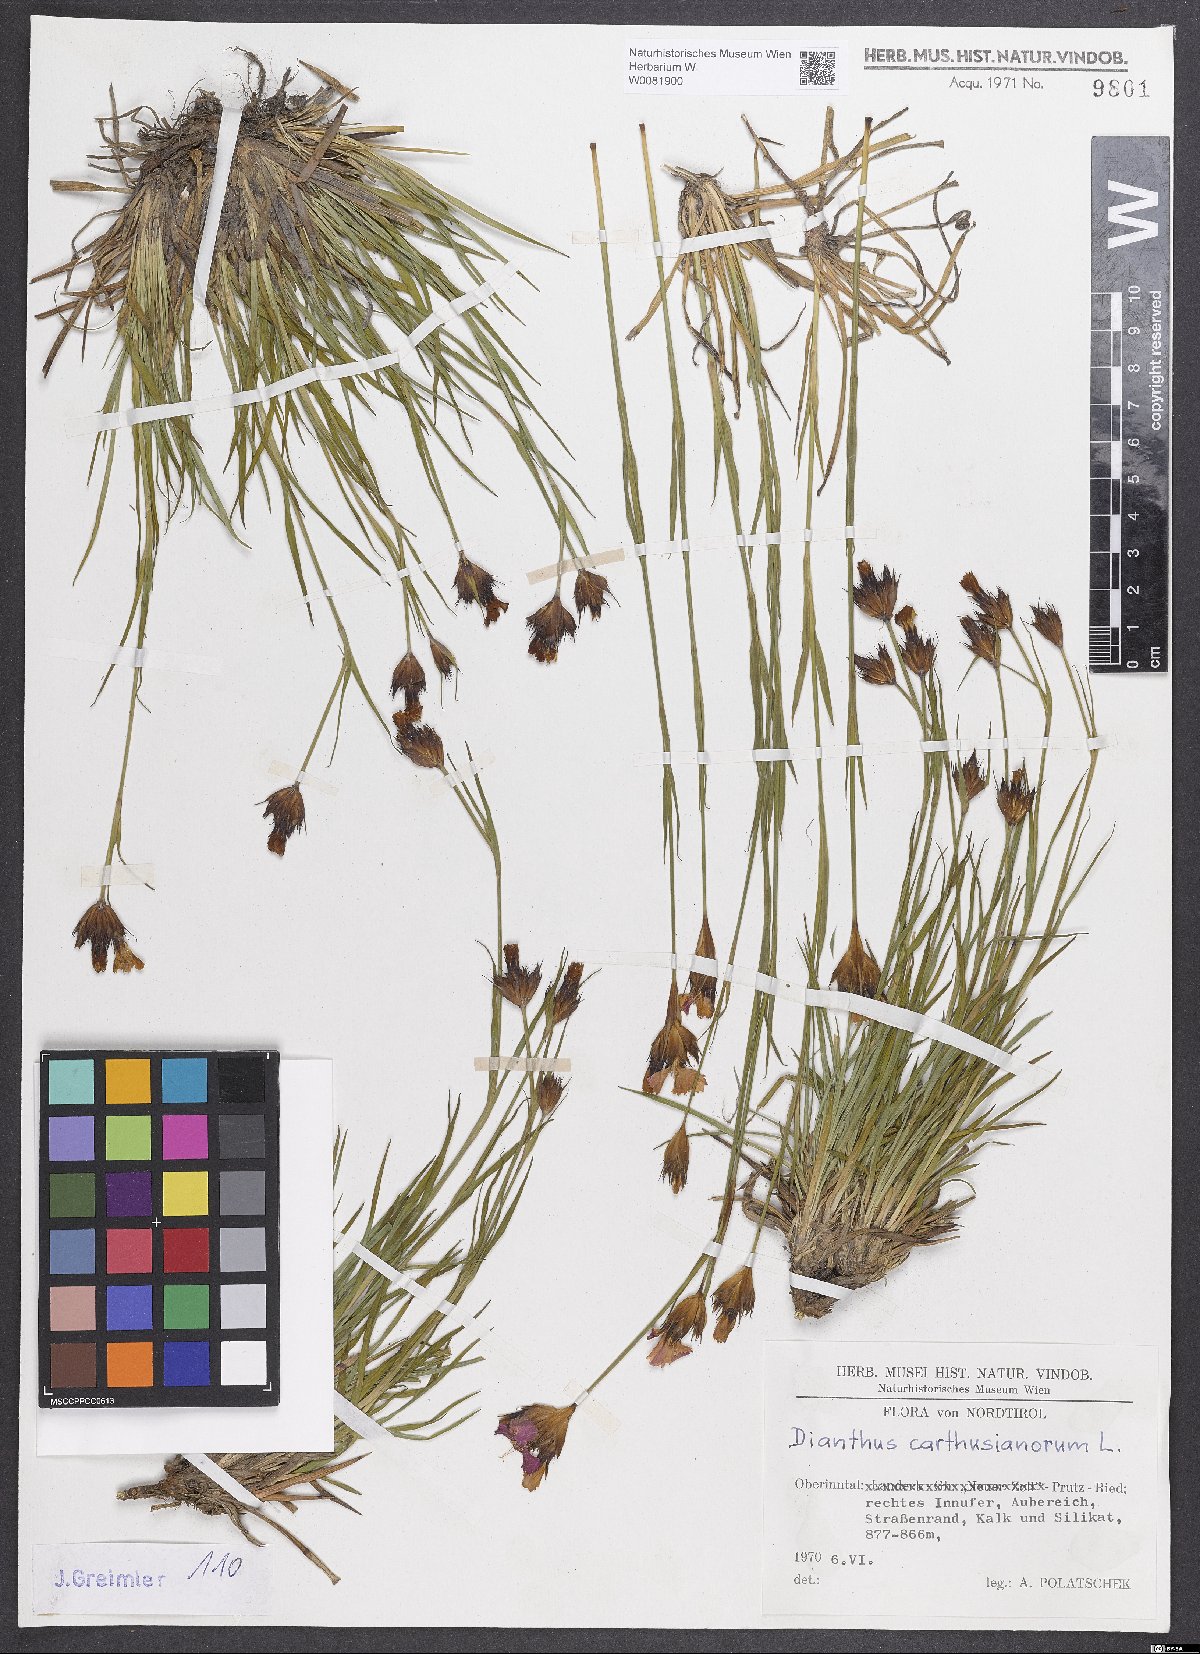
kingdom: Plantae
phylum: Tracheophyta
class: Magnoliopsida
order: Caryophyllales
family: Caryophyllaceae
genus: Dianthus
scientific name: Dianthus carthusianorum
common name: Carthusian pink
